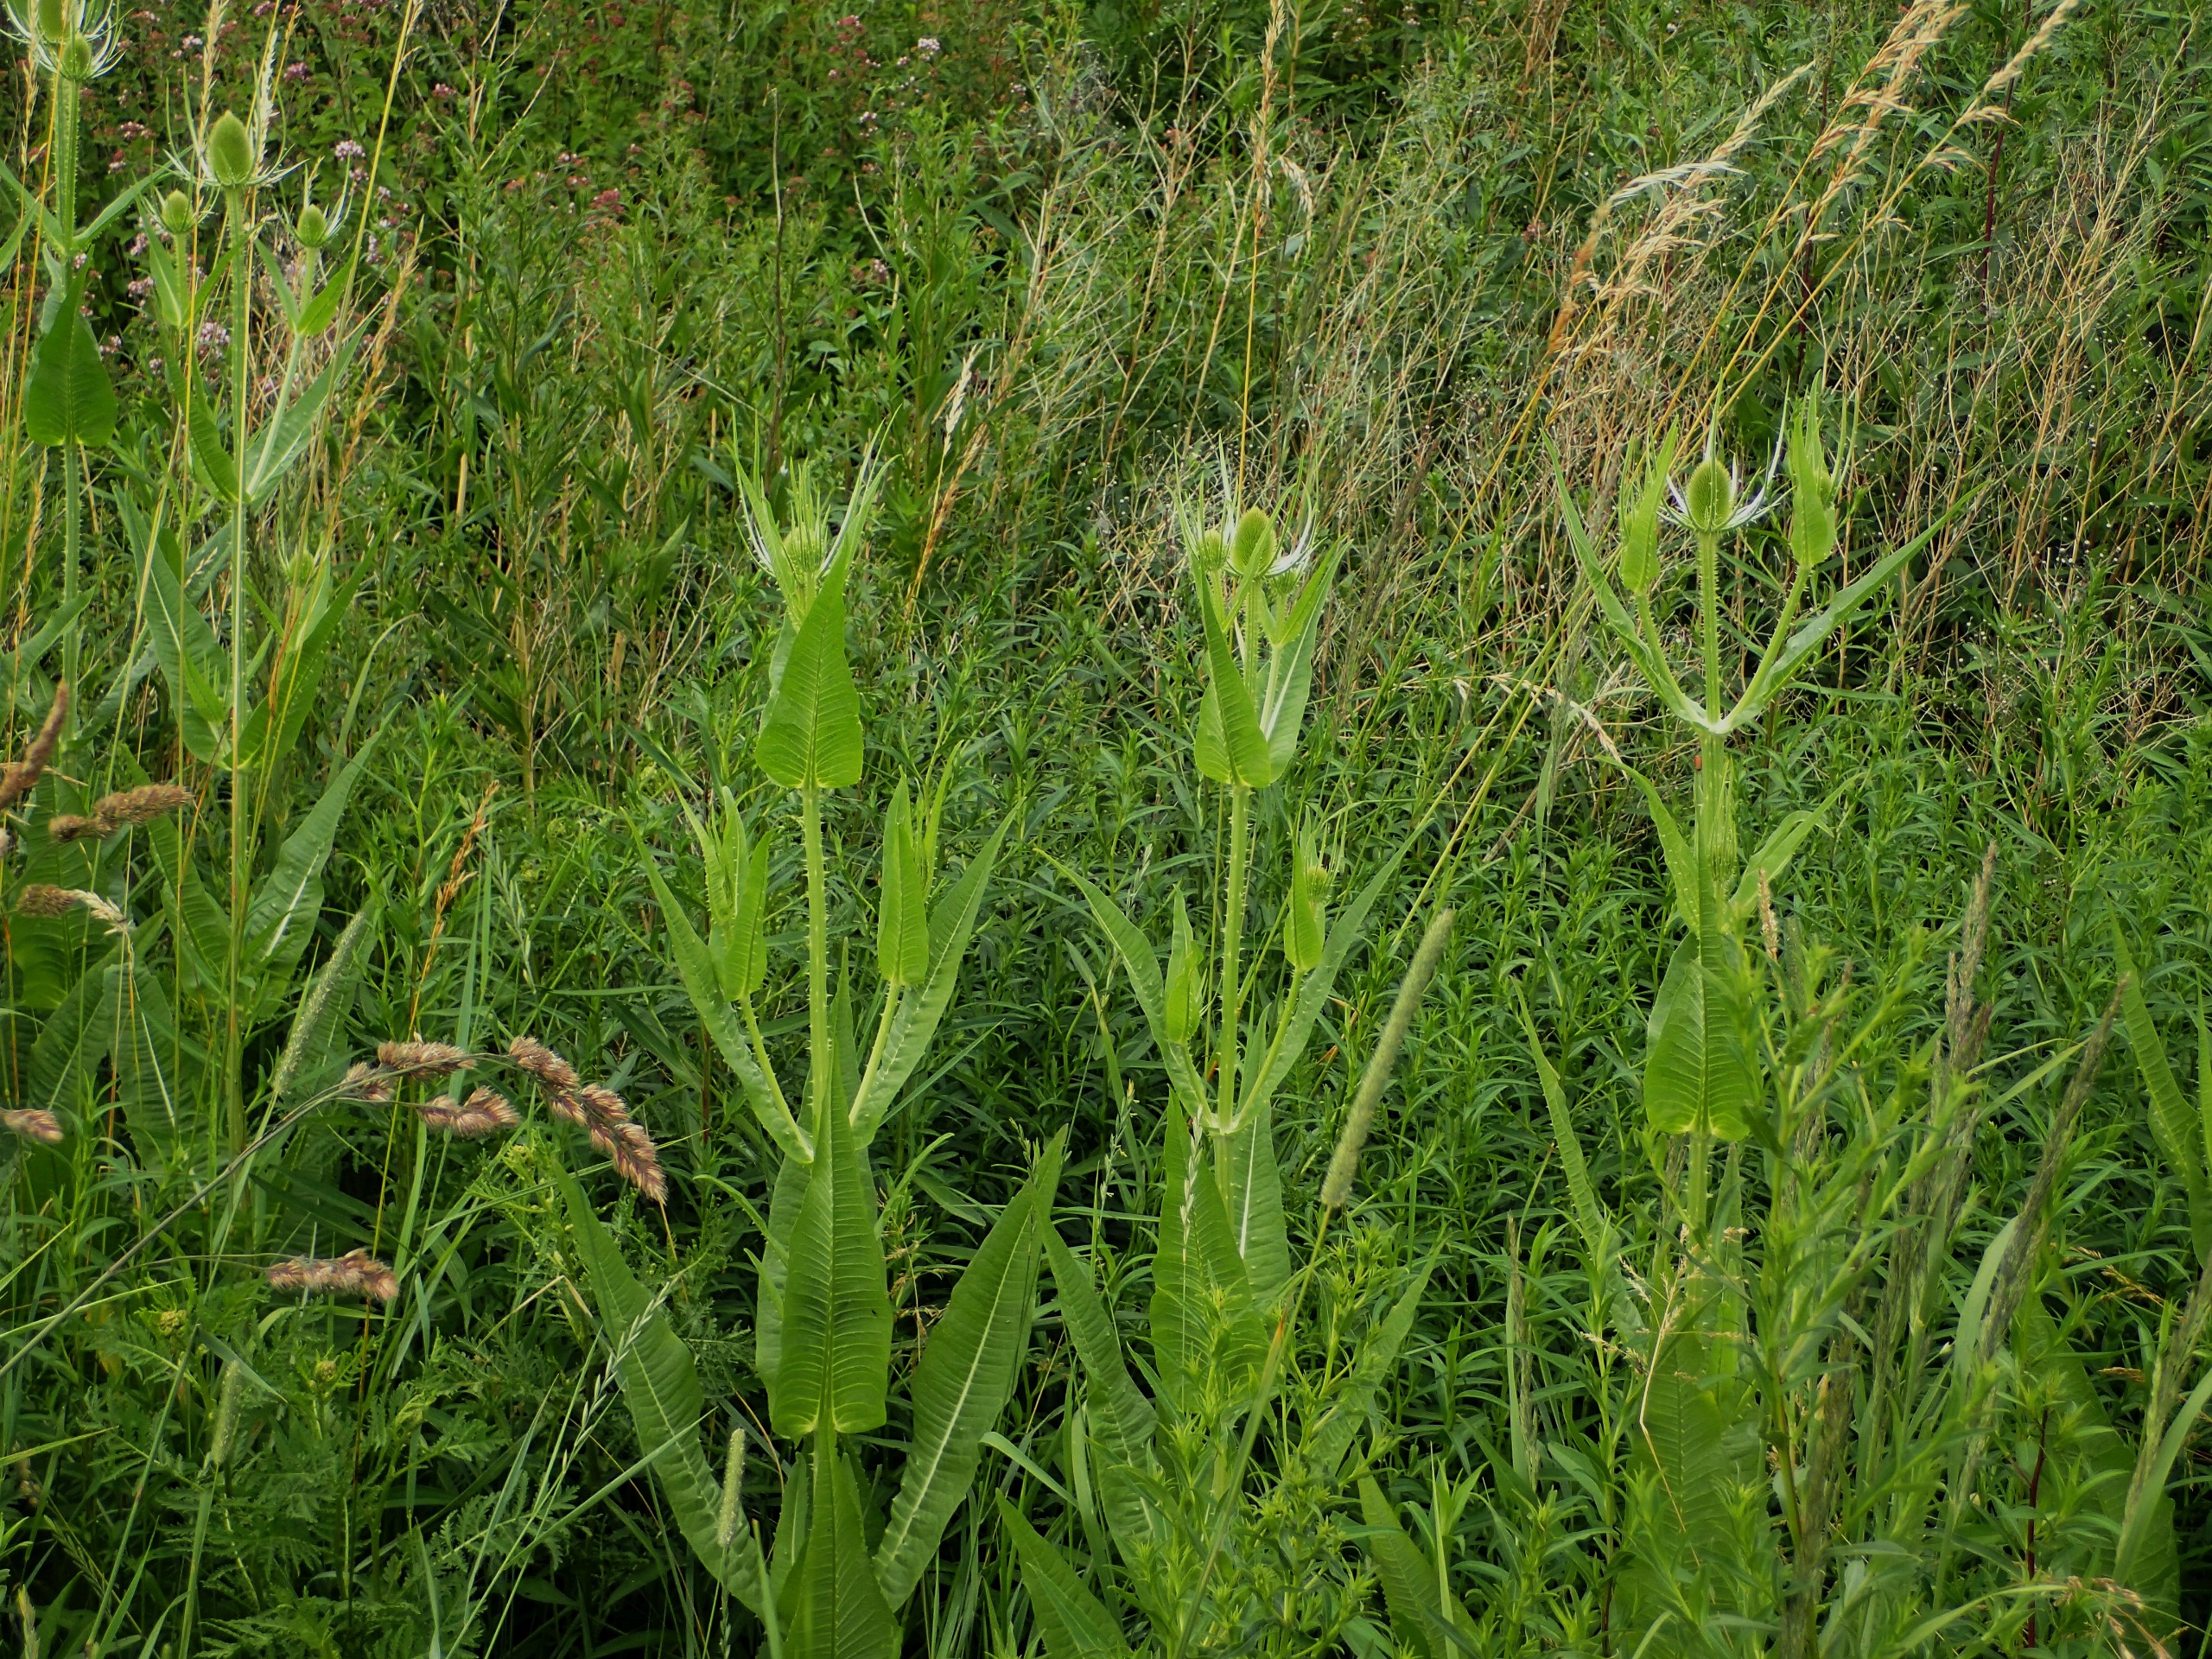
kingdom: Plantae
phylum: Tracheophyta
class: Magnoliopsida
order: Dipsacales
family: Caprifoliaceae
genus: Dipsacus
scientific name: Dipsacus fullonum
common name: Gærde-kartebolle
